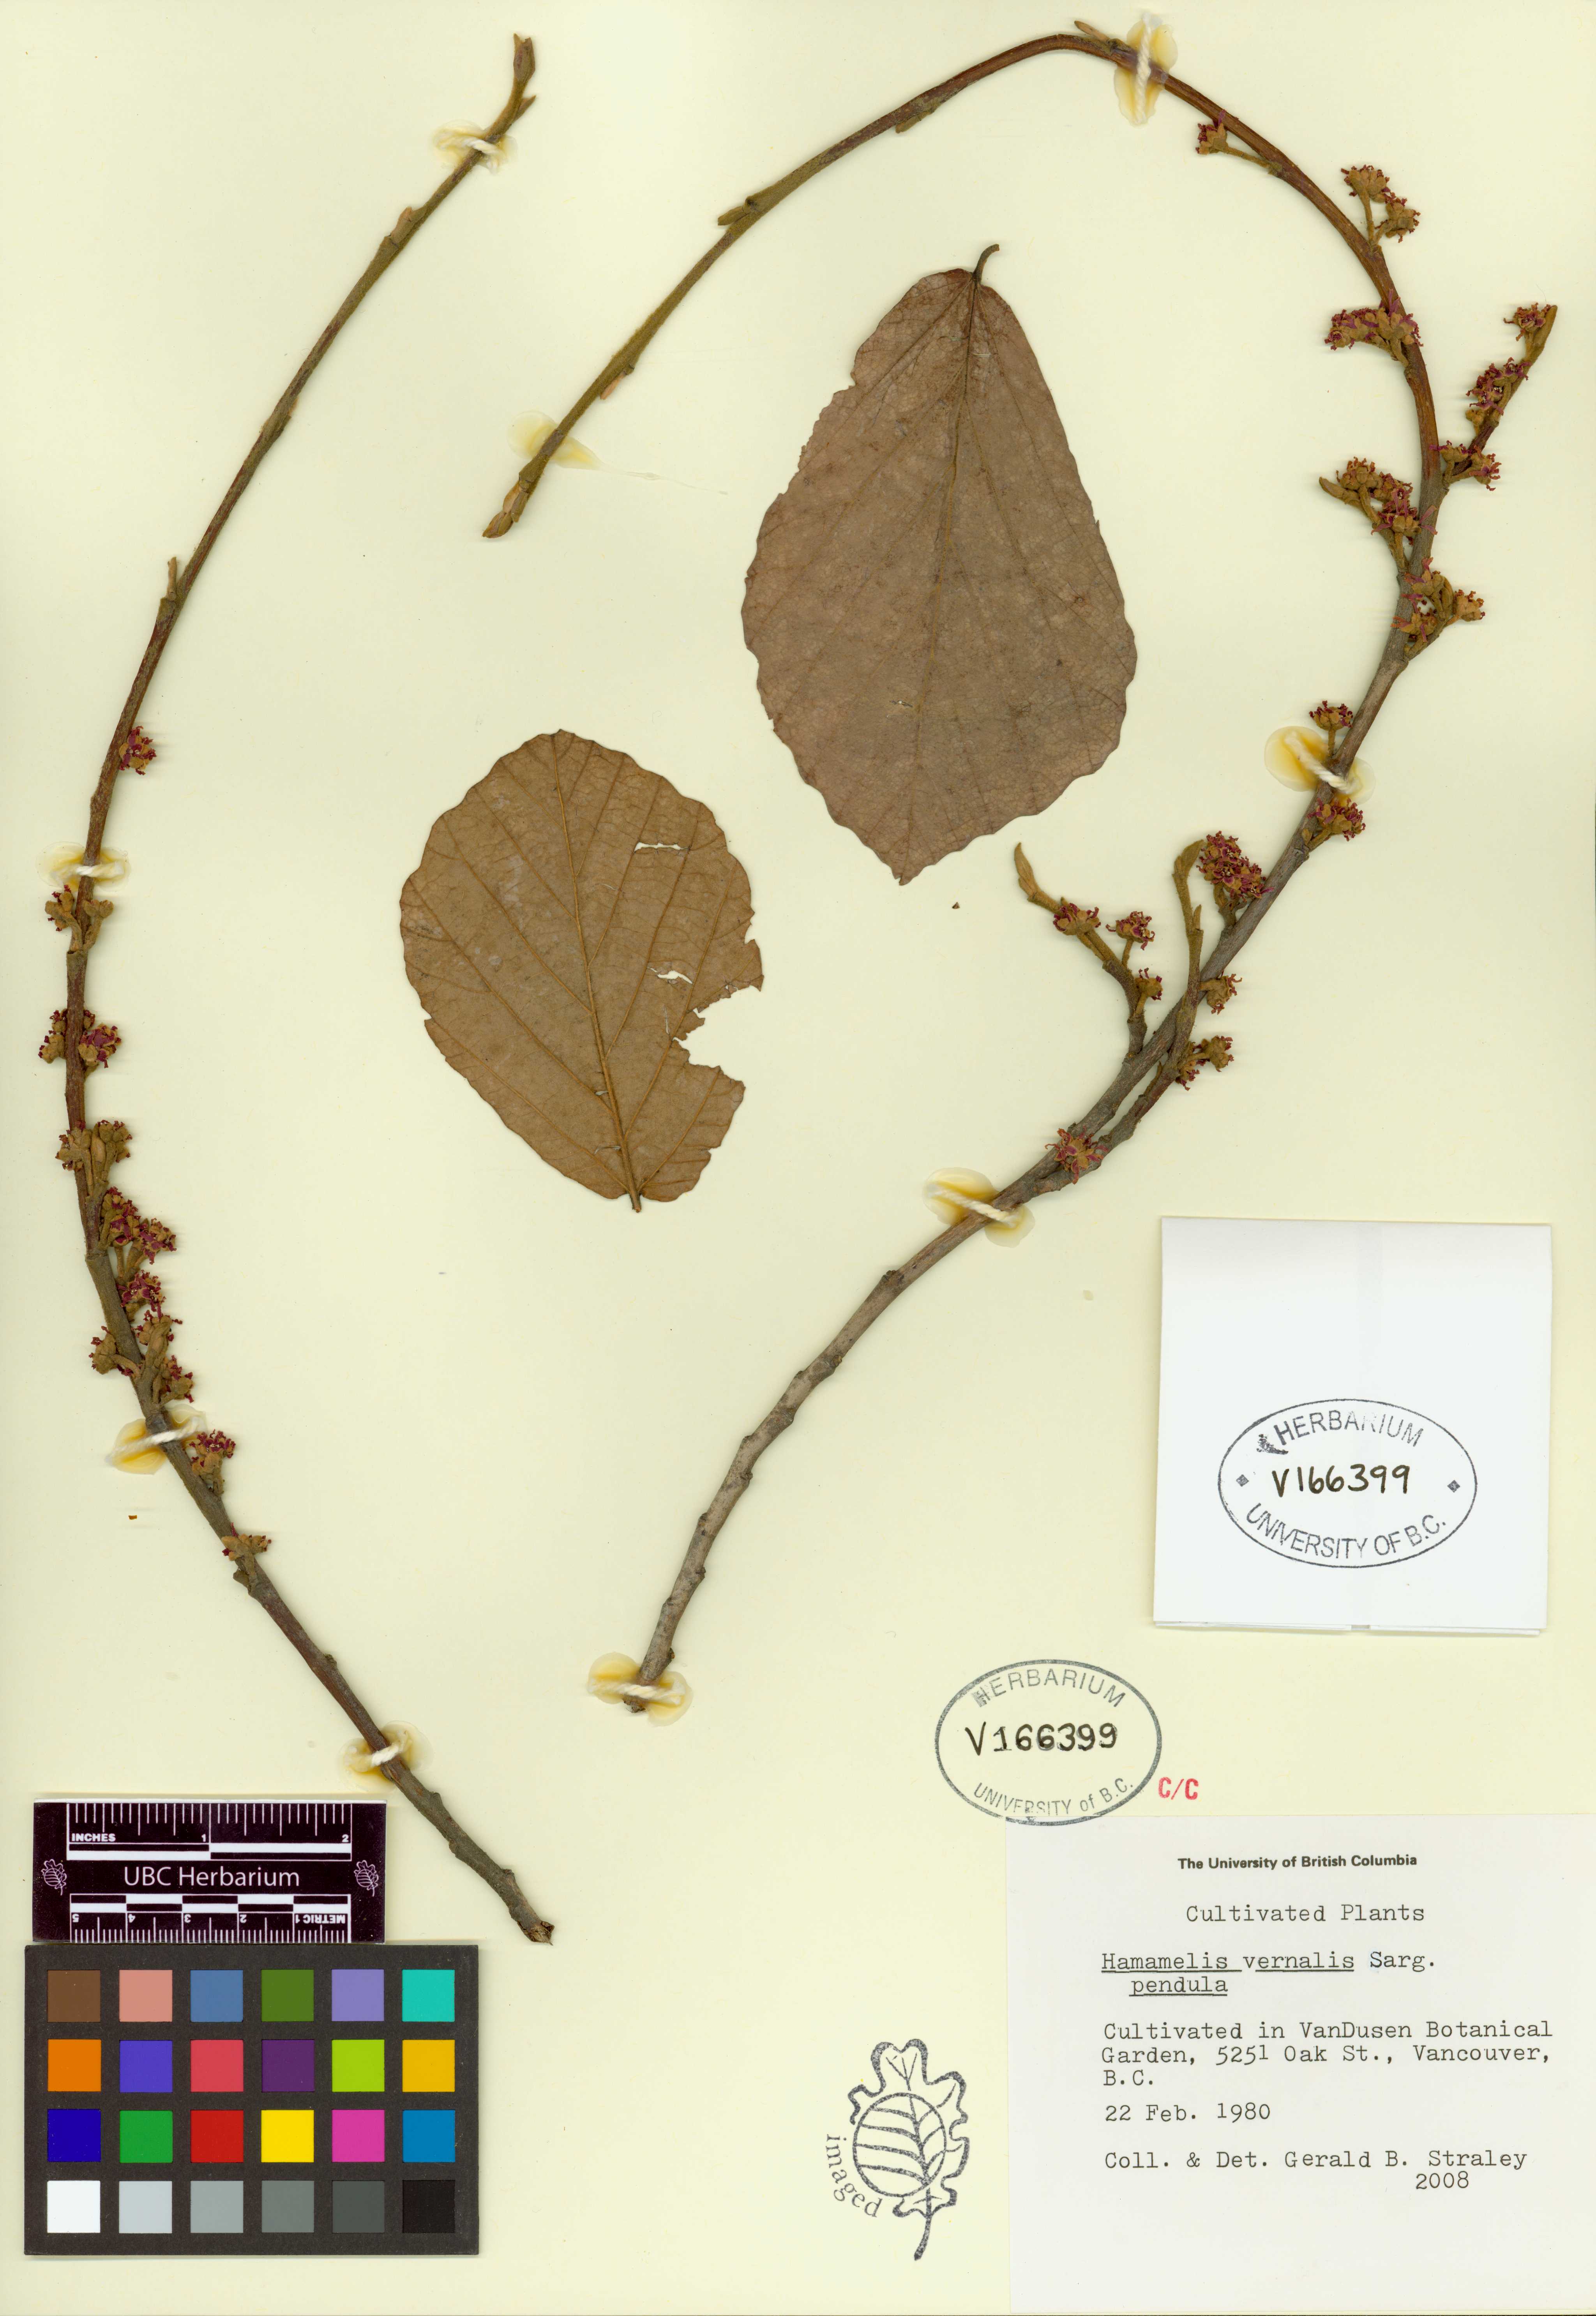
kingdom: Plantae
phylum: Tracheophyta
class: Magnoliopsida
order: Saxifragales
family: Hamamelidaceae
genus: Hamamelis
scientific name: Hamamelis vernalis
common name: Ozark witch-hazel
